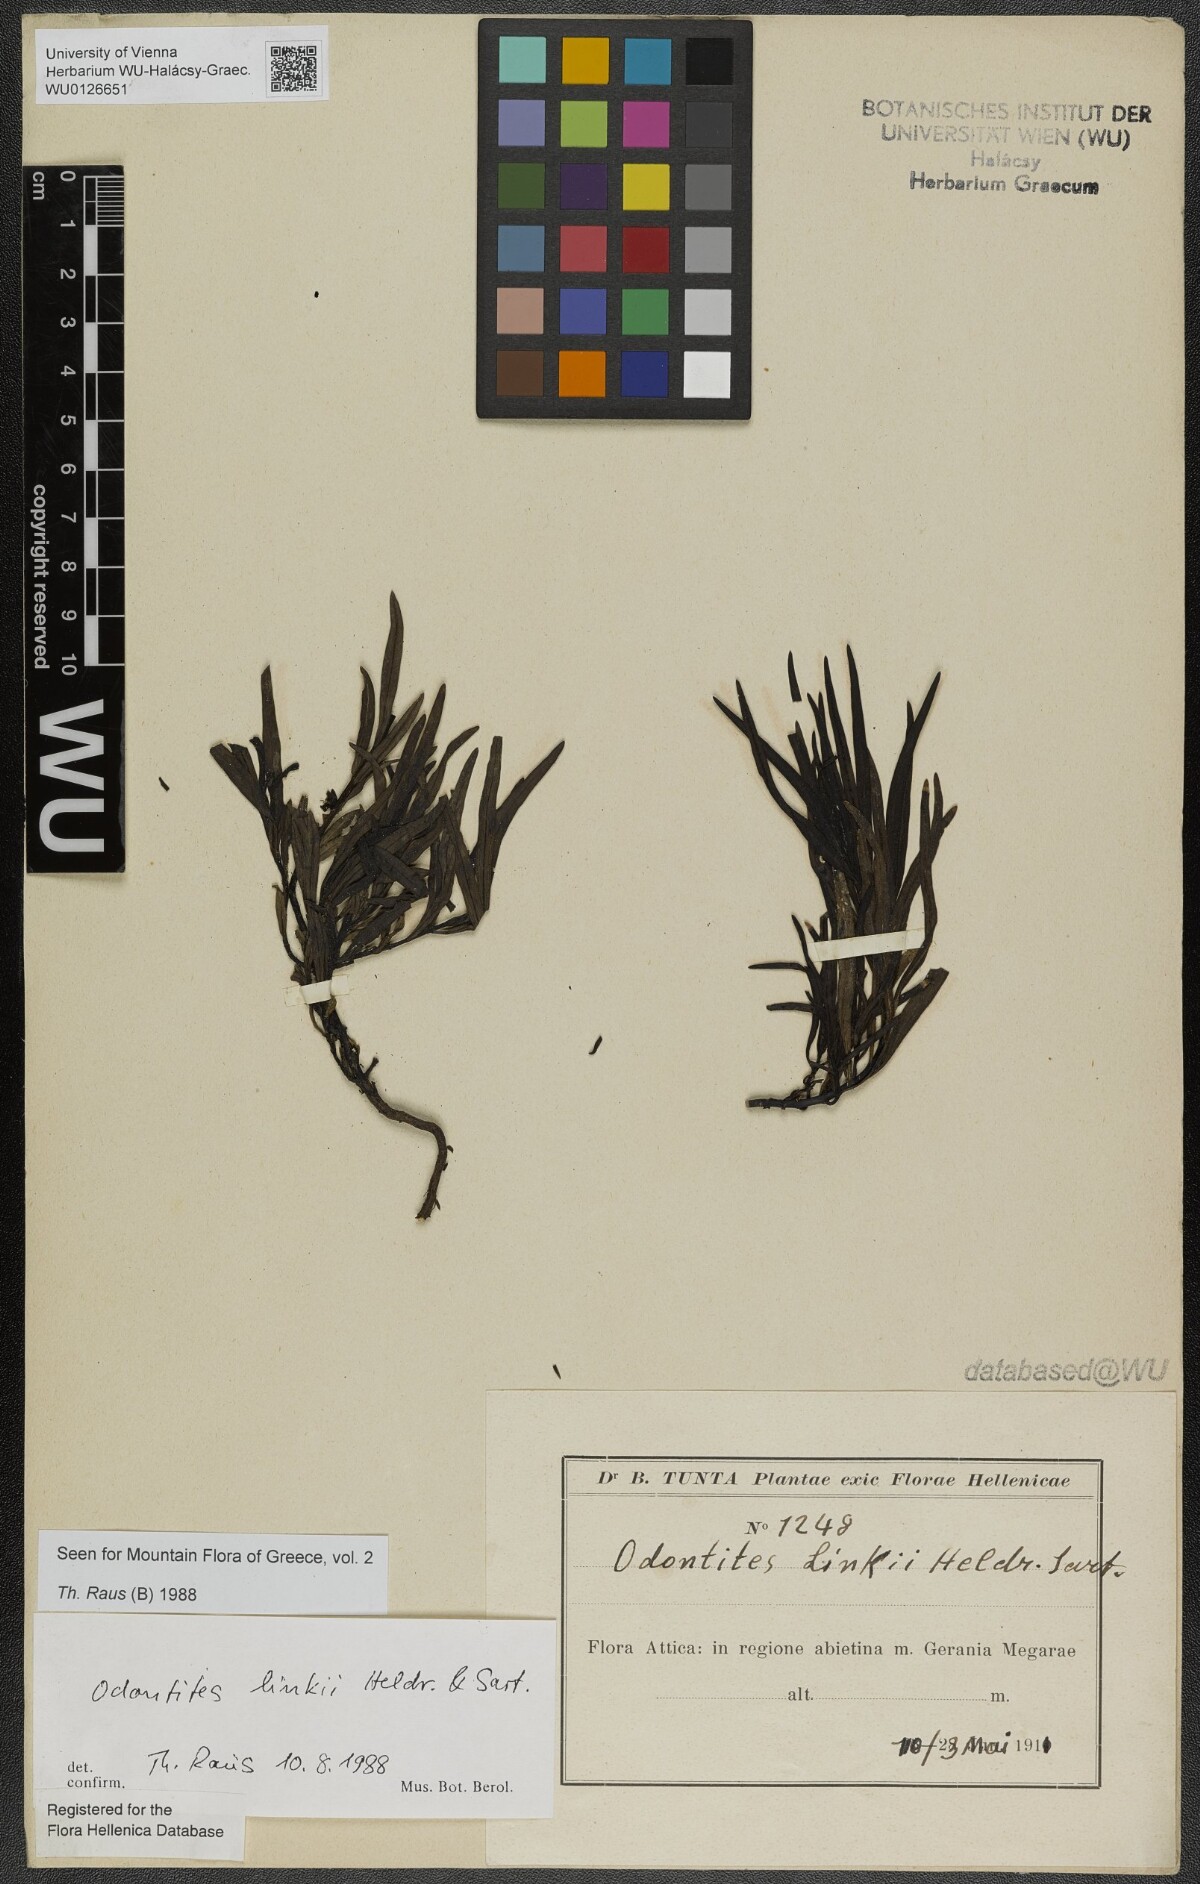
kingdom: Plantae
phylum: Tracheophyta
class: Magnoliopsida
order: Lamiales
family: Scrophulariaceae
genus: Odontites
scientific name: Odontites linkii
